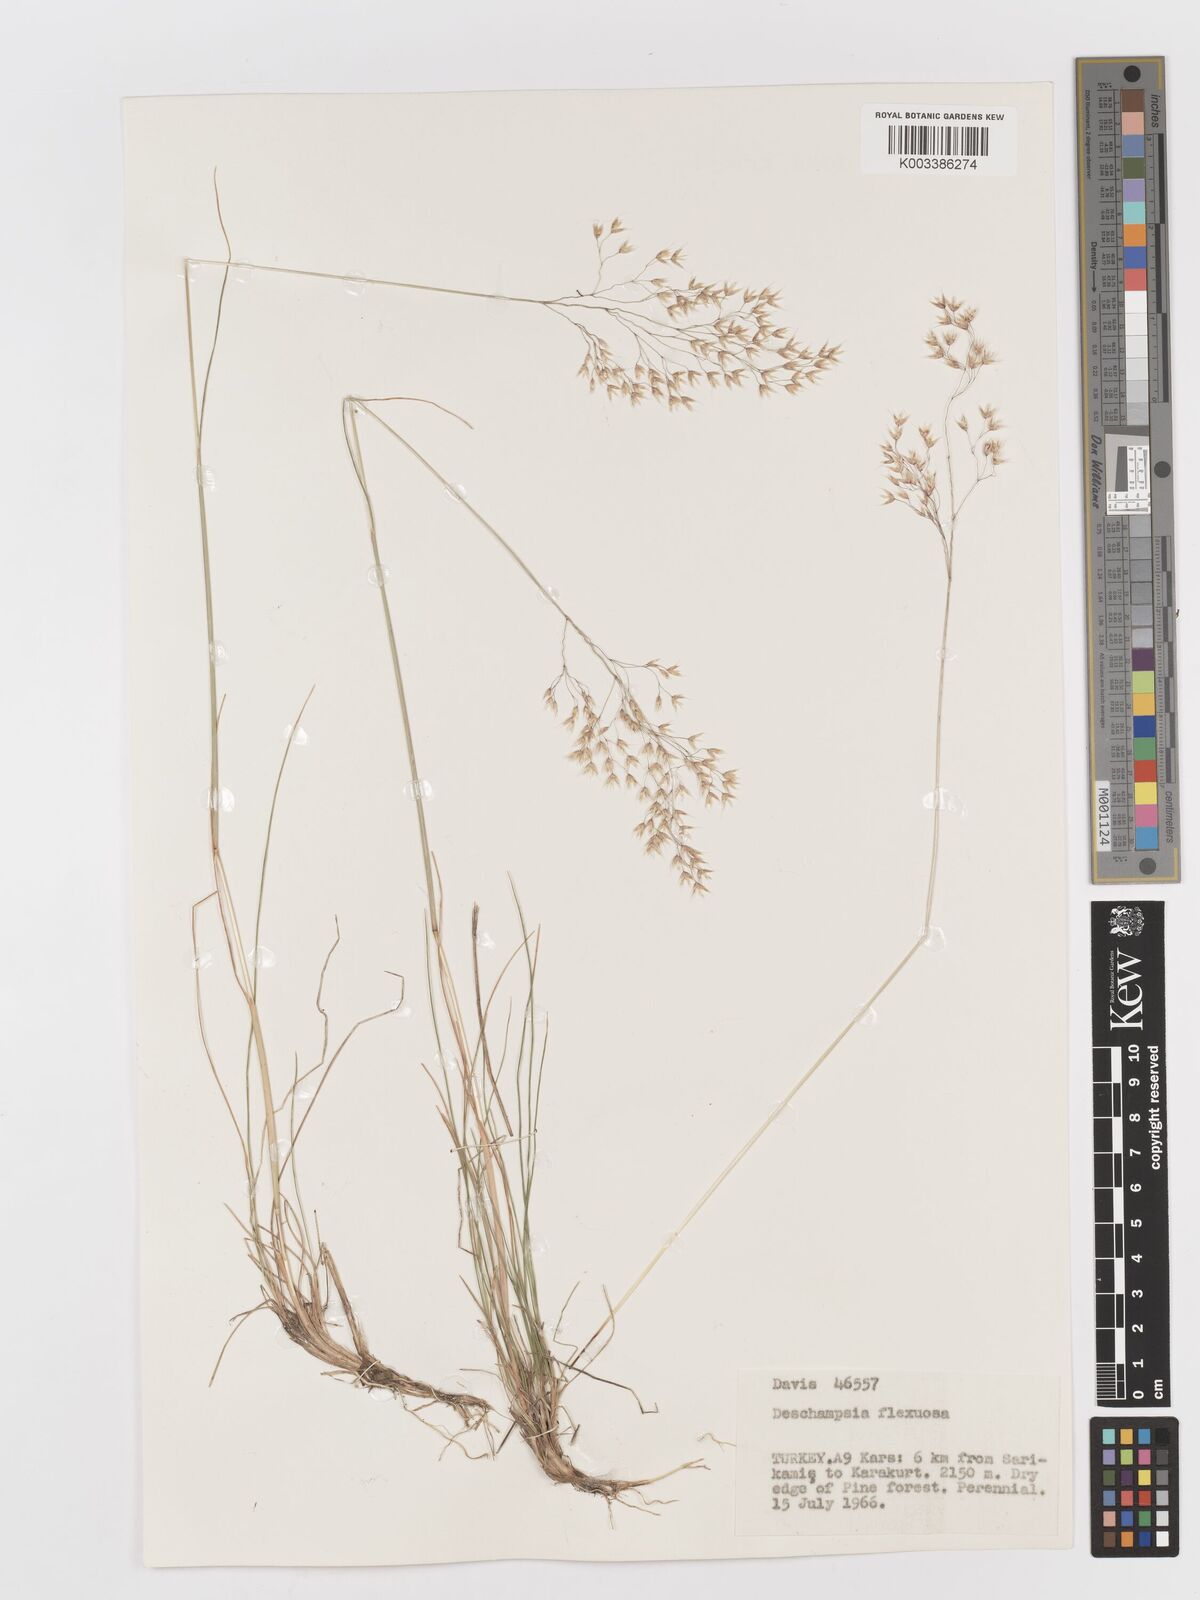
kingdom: Plantae
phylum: Tracheophyta
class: Liliopsida
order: Poales
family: Poaceae
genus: Avenella
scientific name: Avenella flexuosa
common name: Wavy hairgrass
